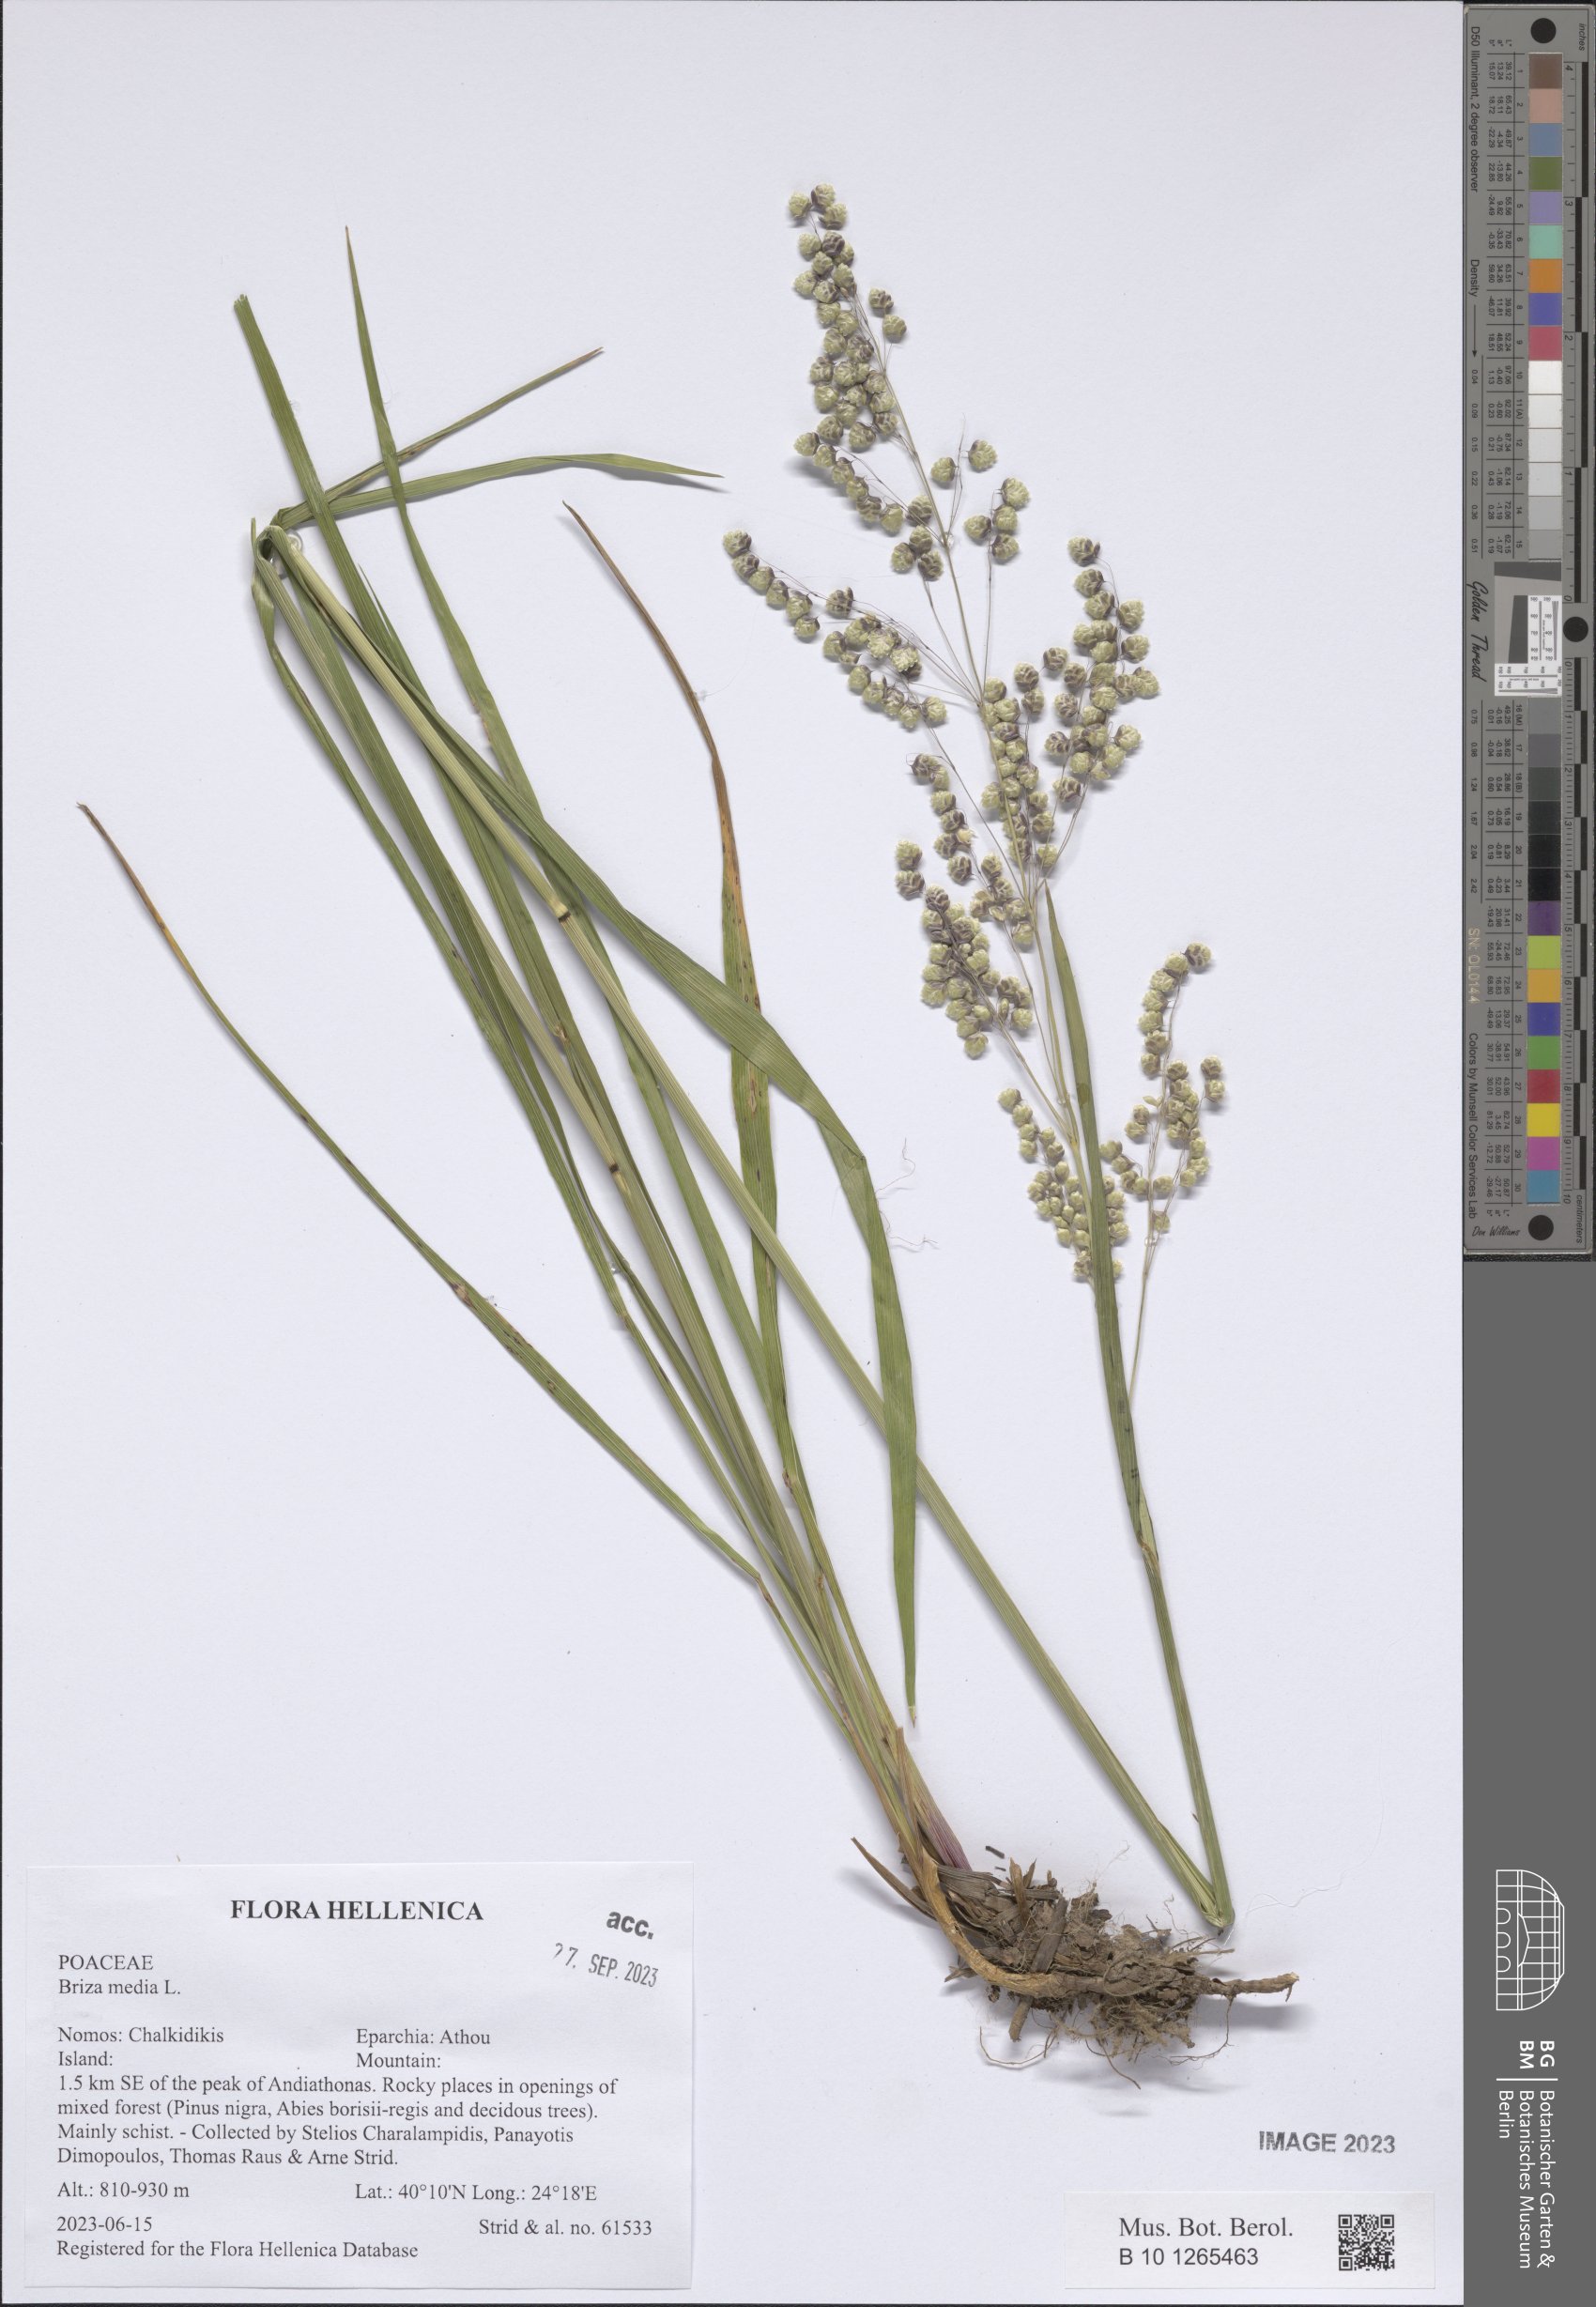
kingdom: Plantae
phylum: Tracheophyta
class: Liliopsida
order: Poales
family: Poaceae
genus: Briza
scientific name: Briza media
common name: Quaking grass
